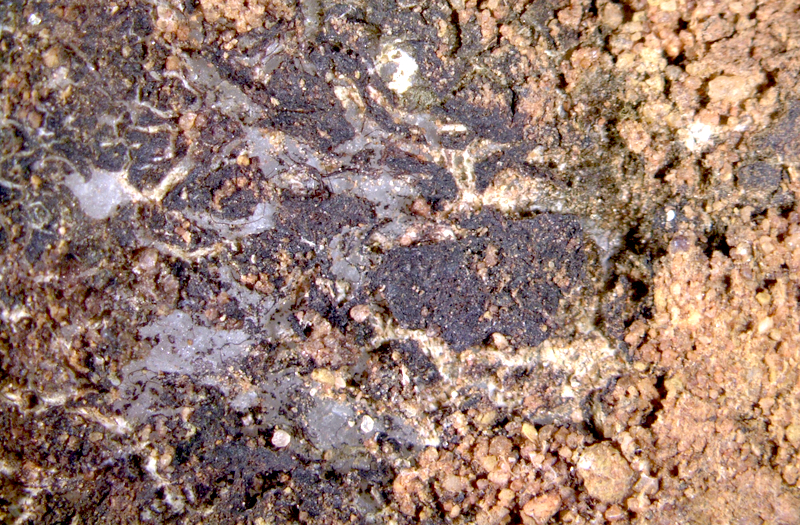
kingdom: Fungi
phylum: Ascomycota
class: Lichinomycetes
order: Lichinales
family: Peltulaceae
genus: Peltula
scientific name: Peltula inversa
